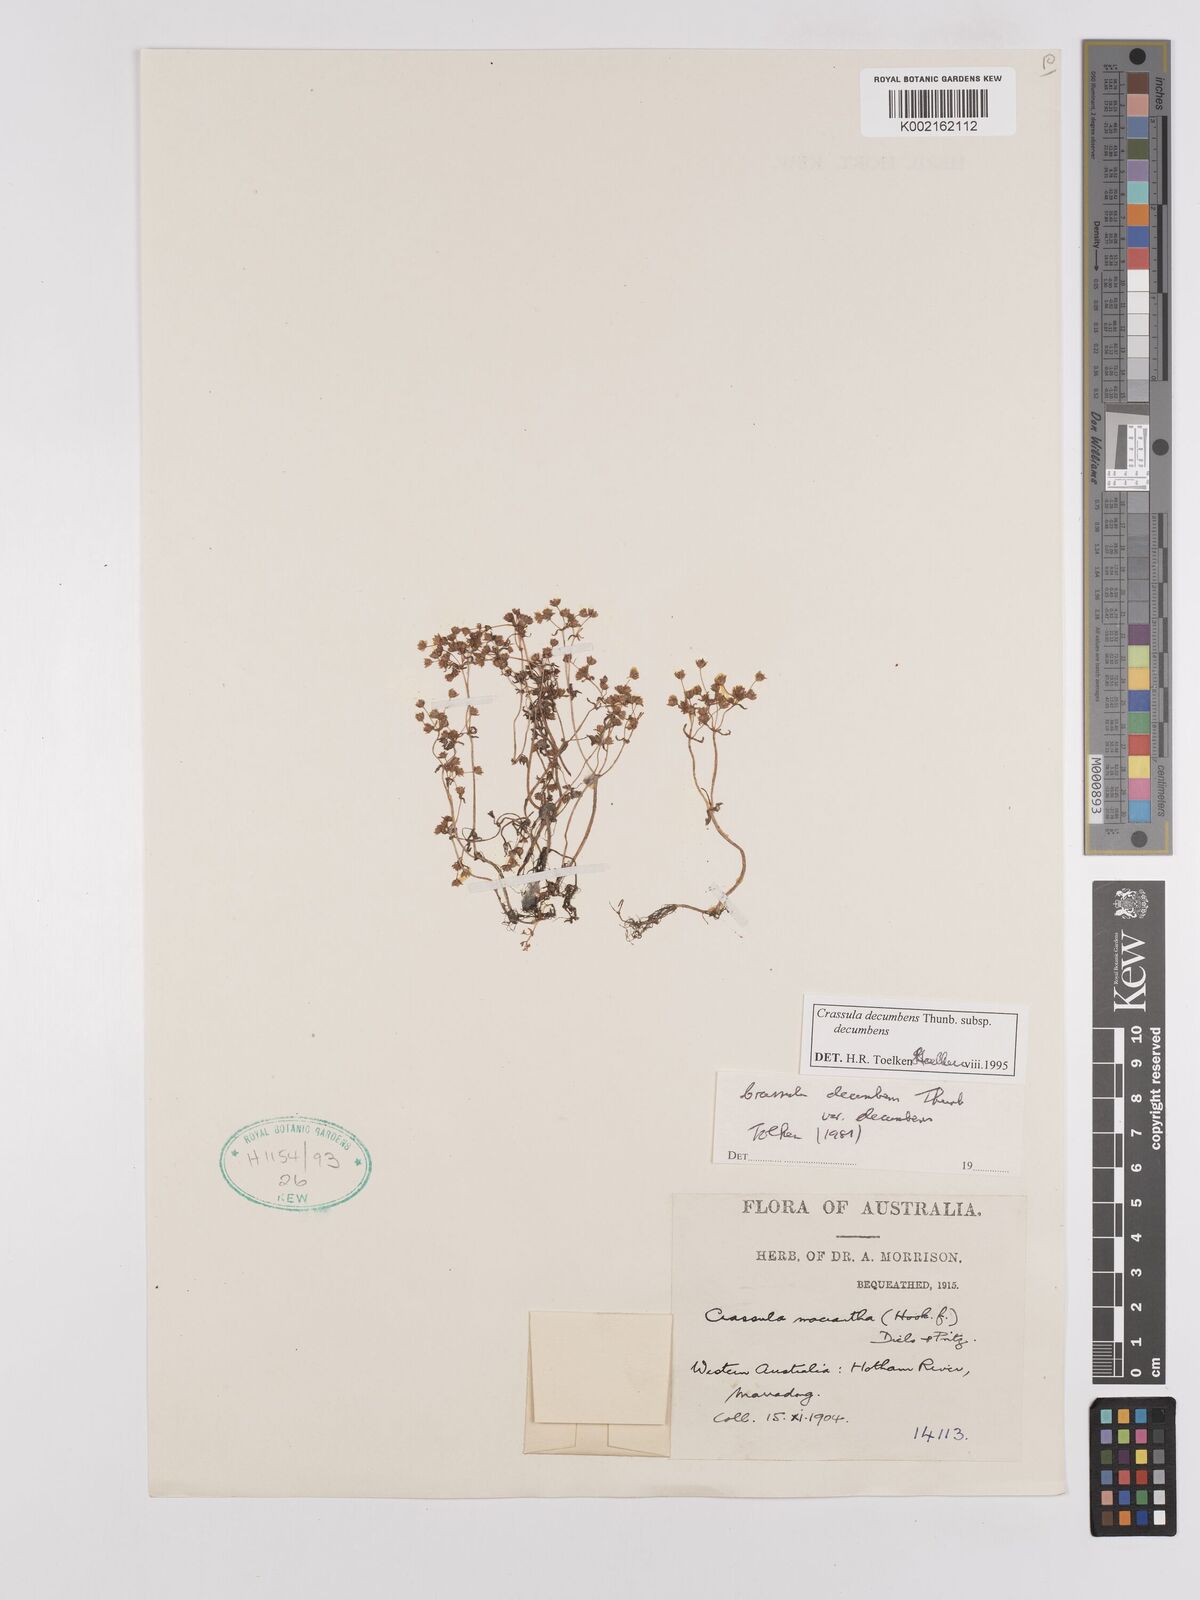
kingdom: Plantae
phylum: Tracheophyta
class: Magnoliopsida
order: Saxifragales
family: Crassulaceae
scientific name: Crassulaceae
